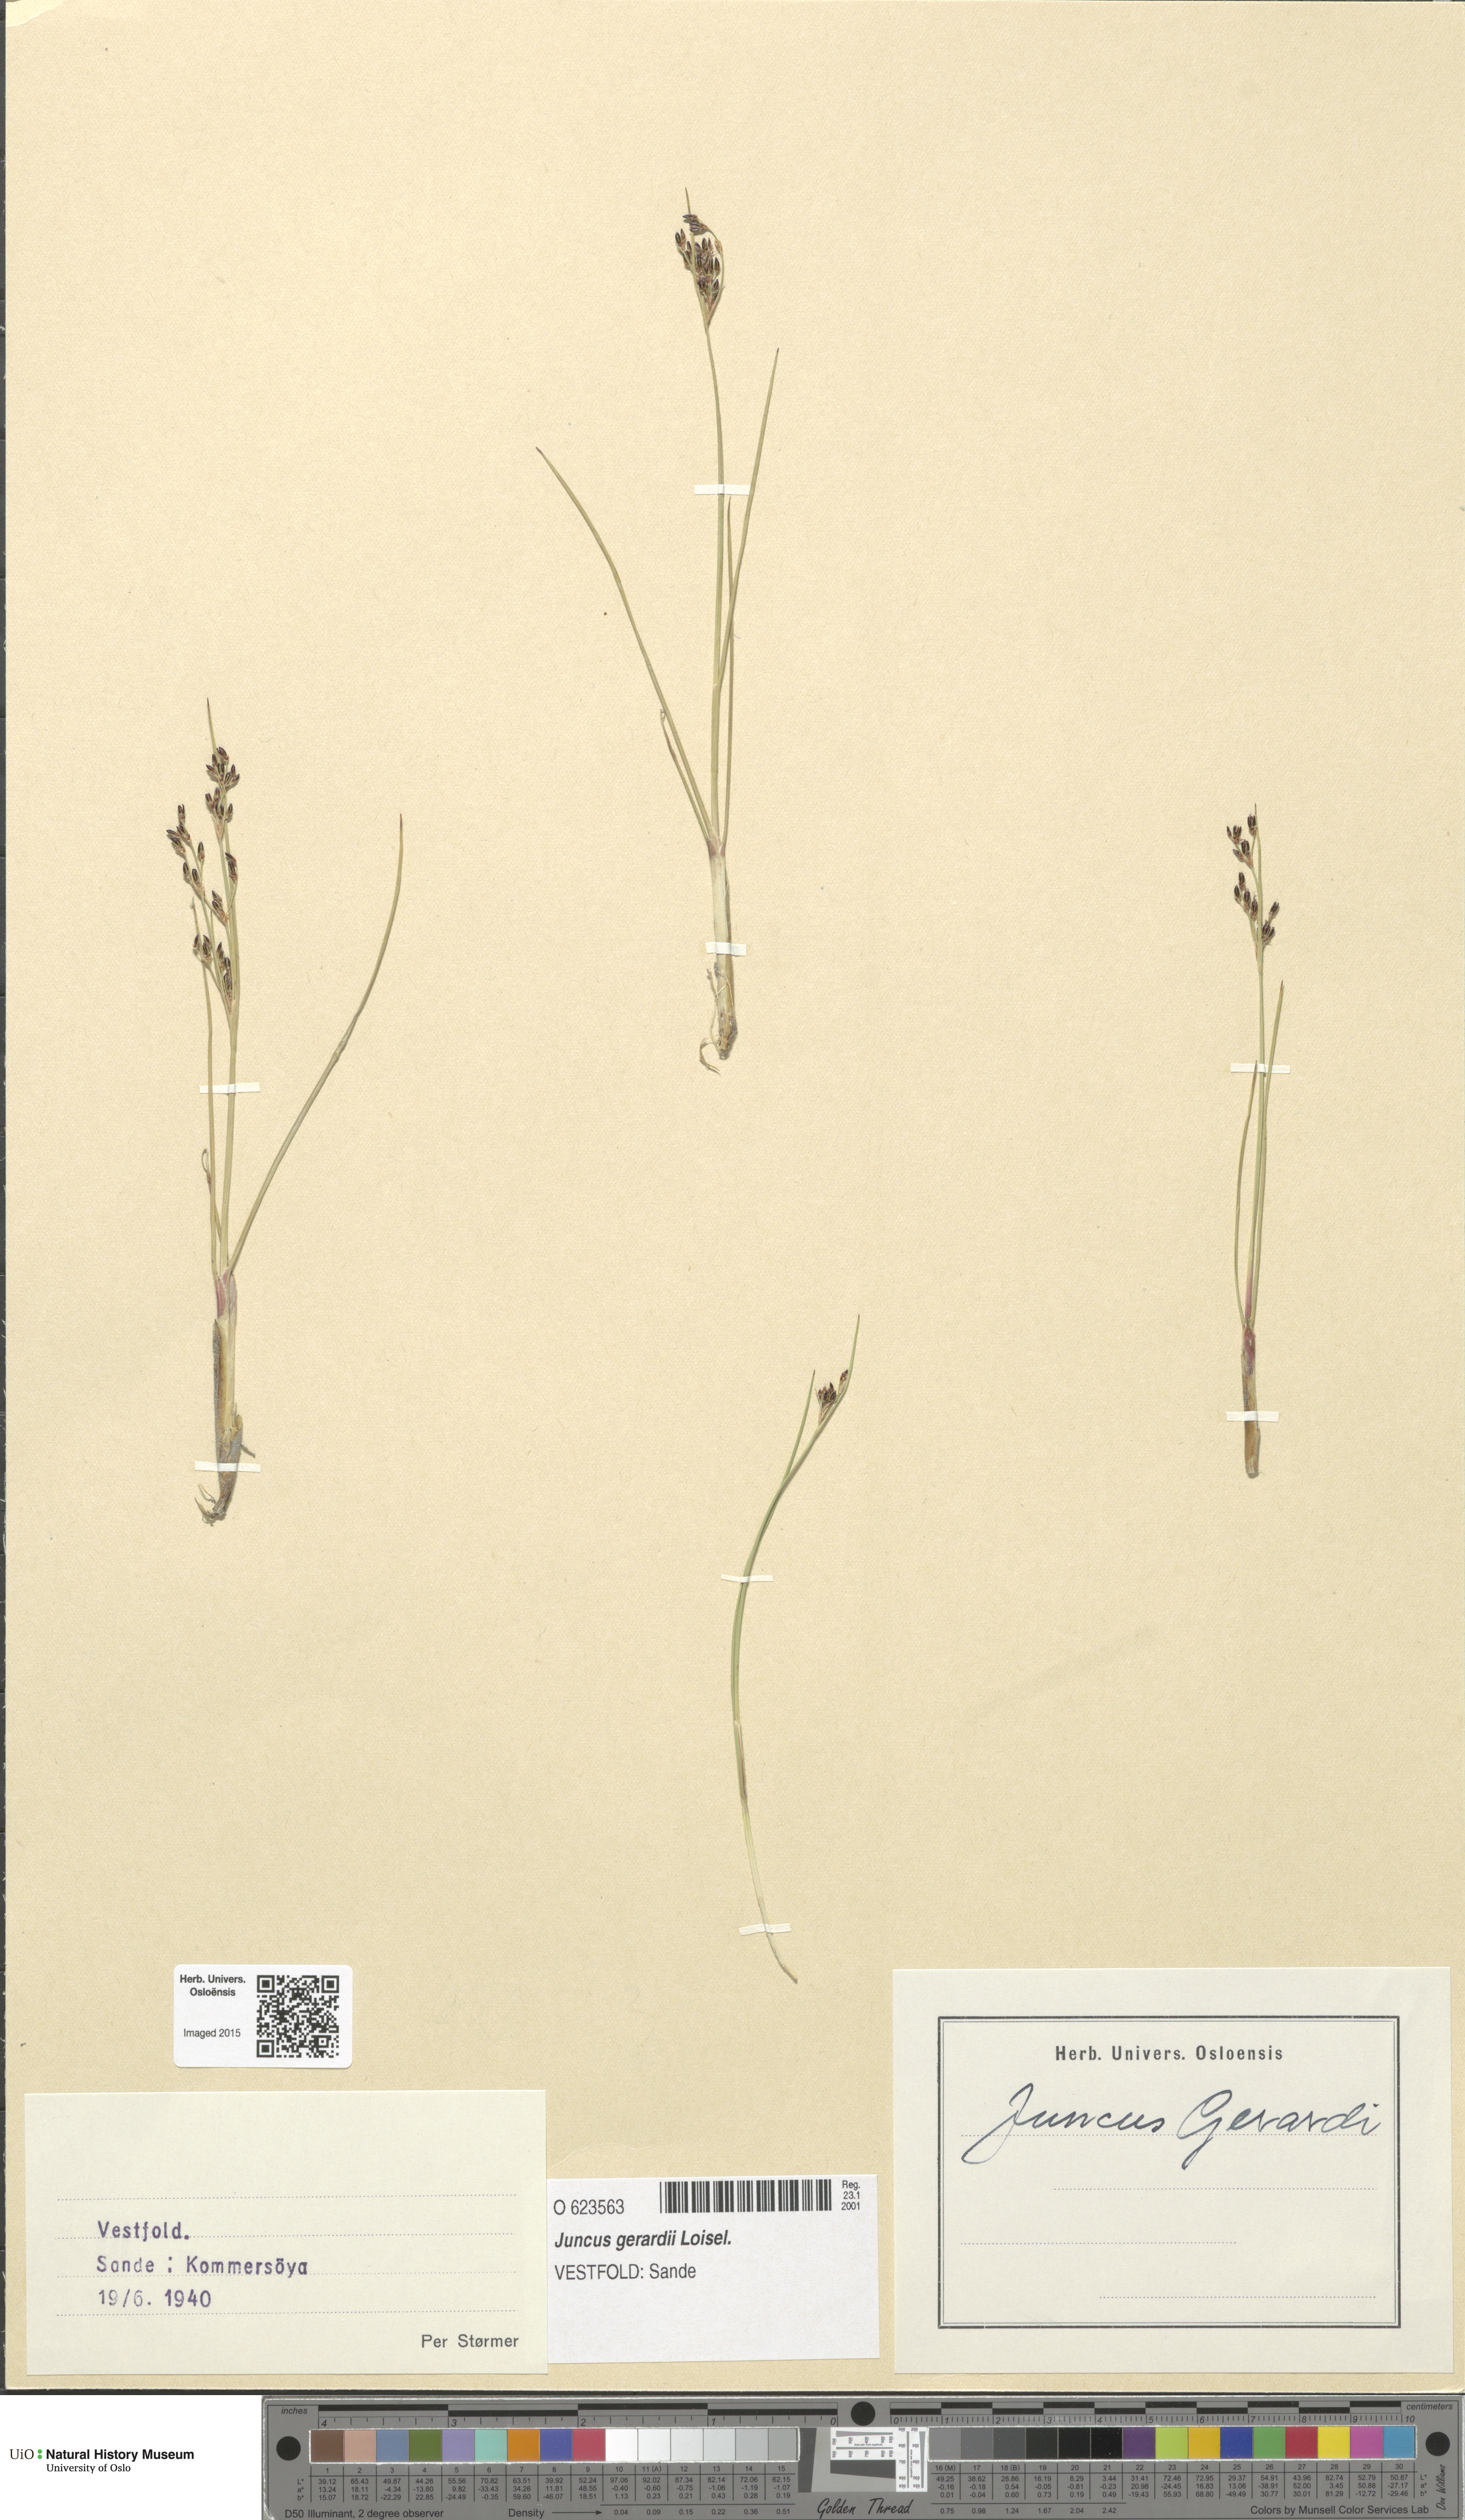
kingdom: Plantae
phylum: Tracheophyta
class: Liliopsida
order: Poales
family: Juncaceae
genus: Juncus
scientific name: Juncus gerardi
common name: Saltmarsh rush
